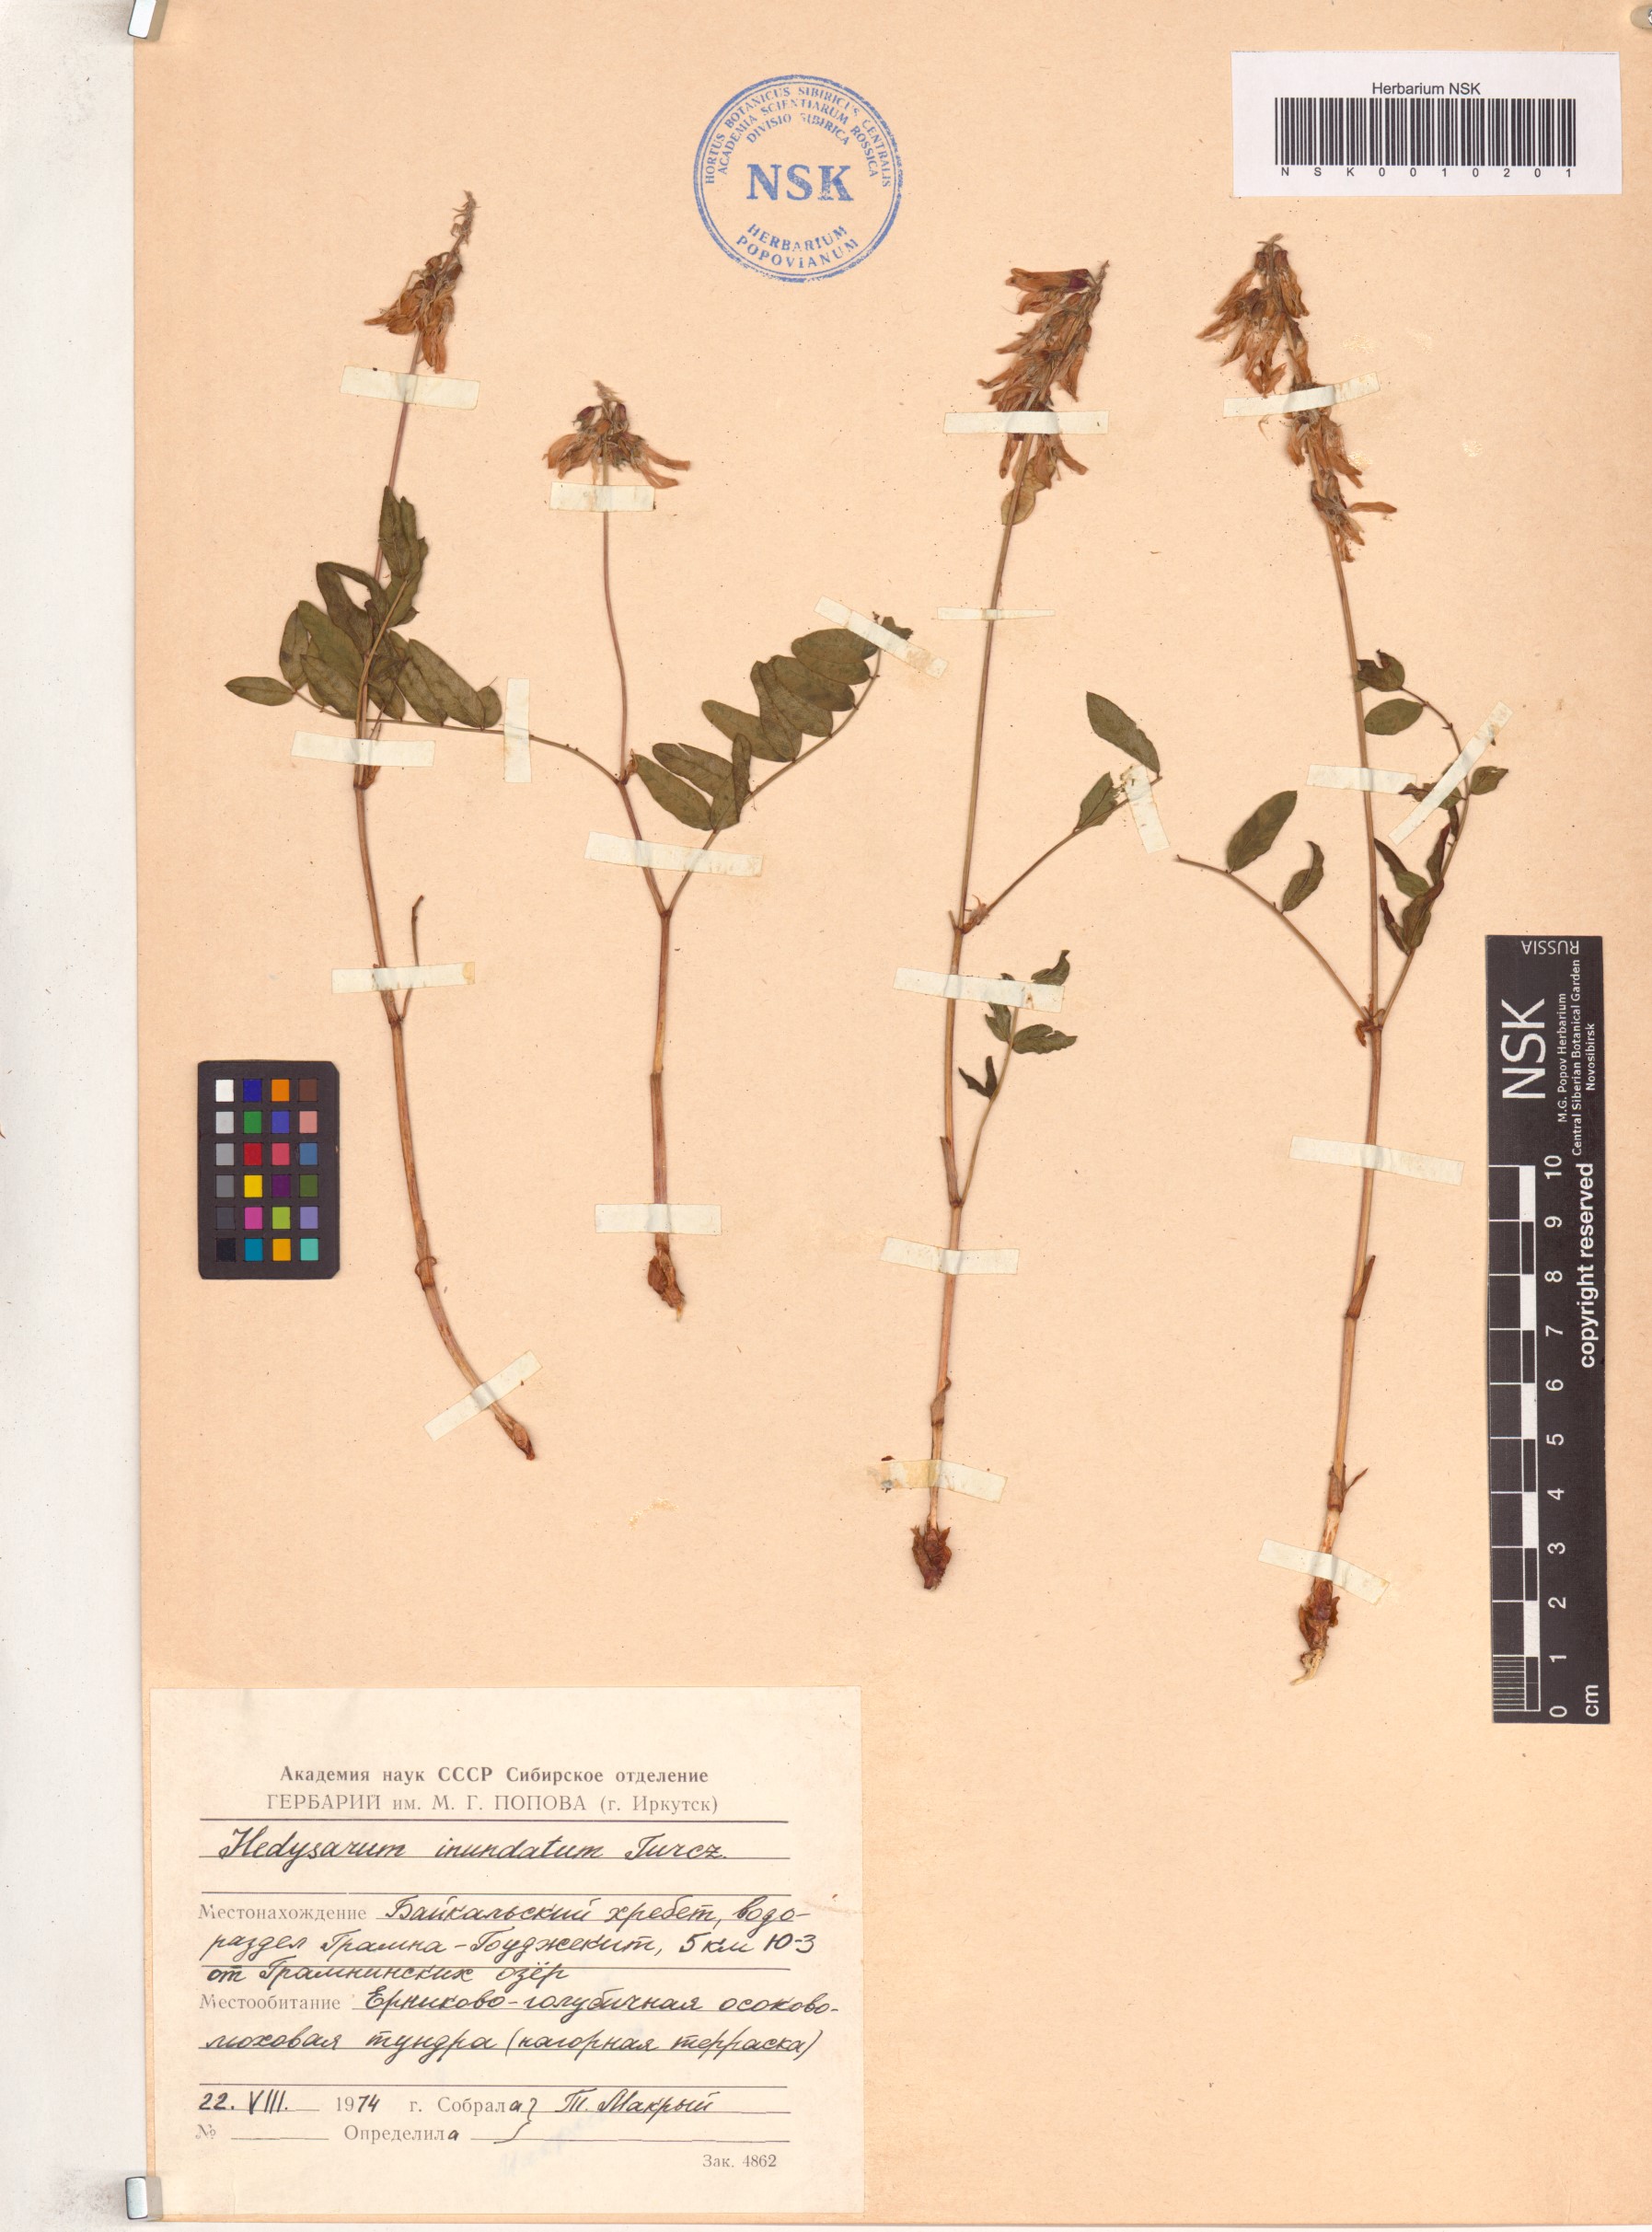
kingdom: Plantae
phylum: Tracheophyta
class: Magnoliopsida
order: Fabales
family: Fabaceae
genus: Hedysarum
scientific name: Hedysarum inundatum
